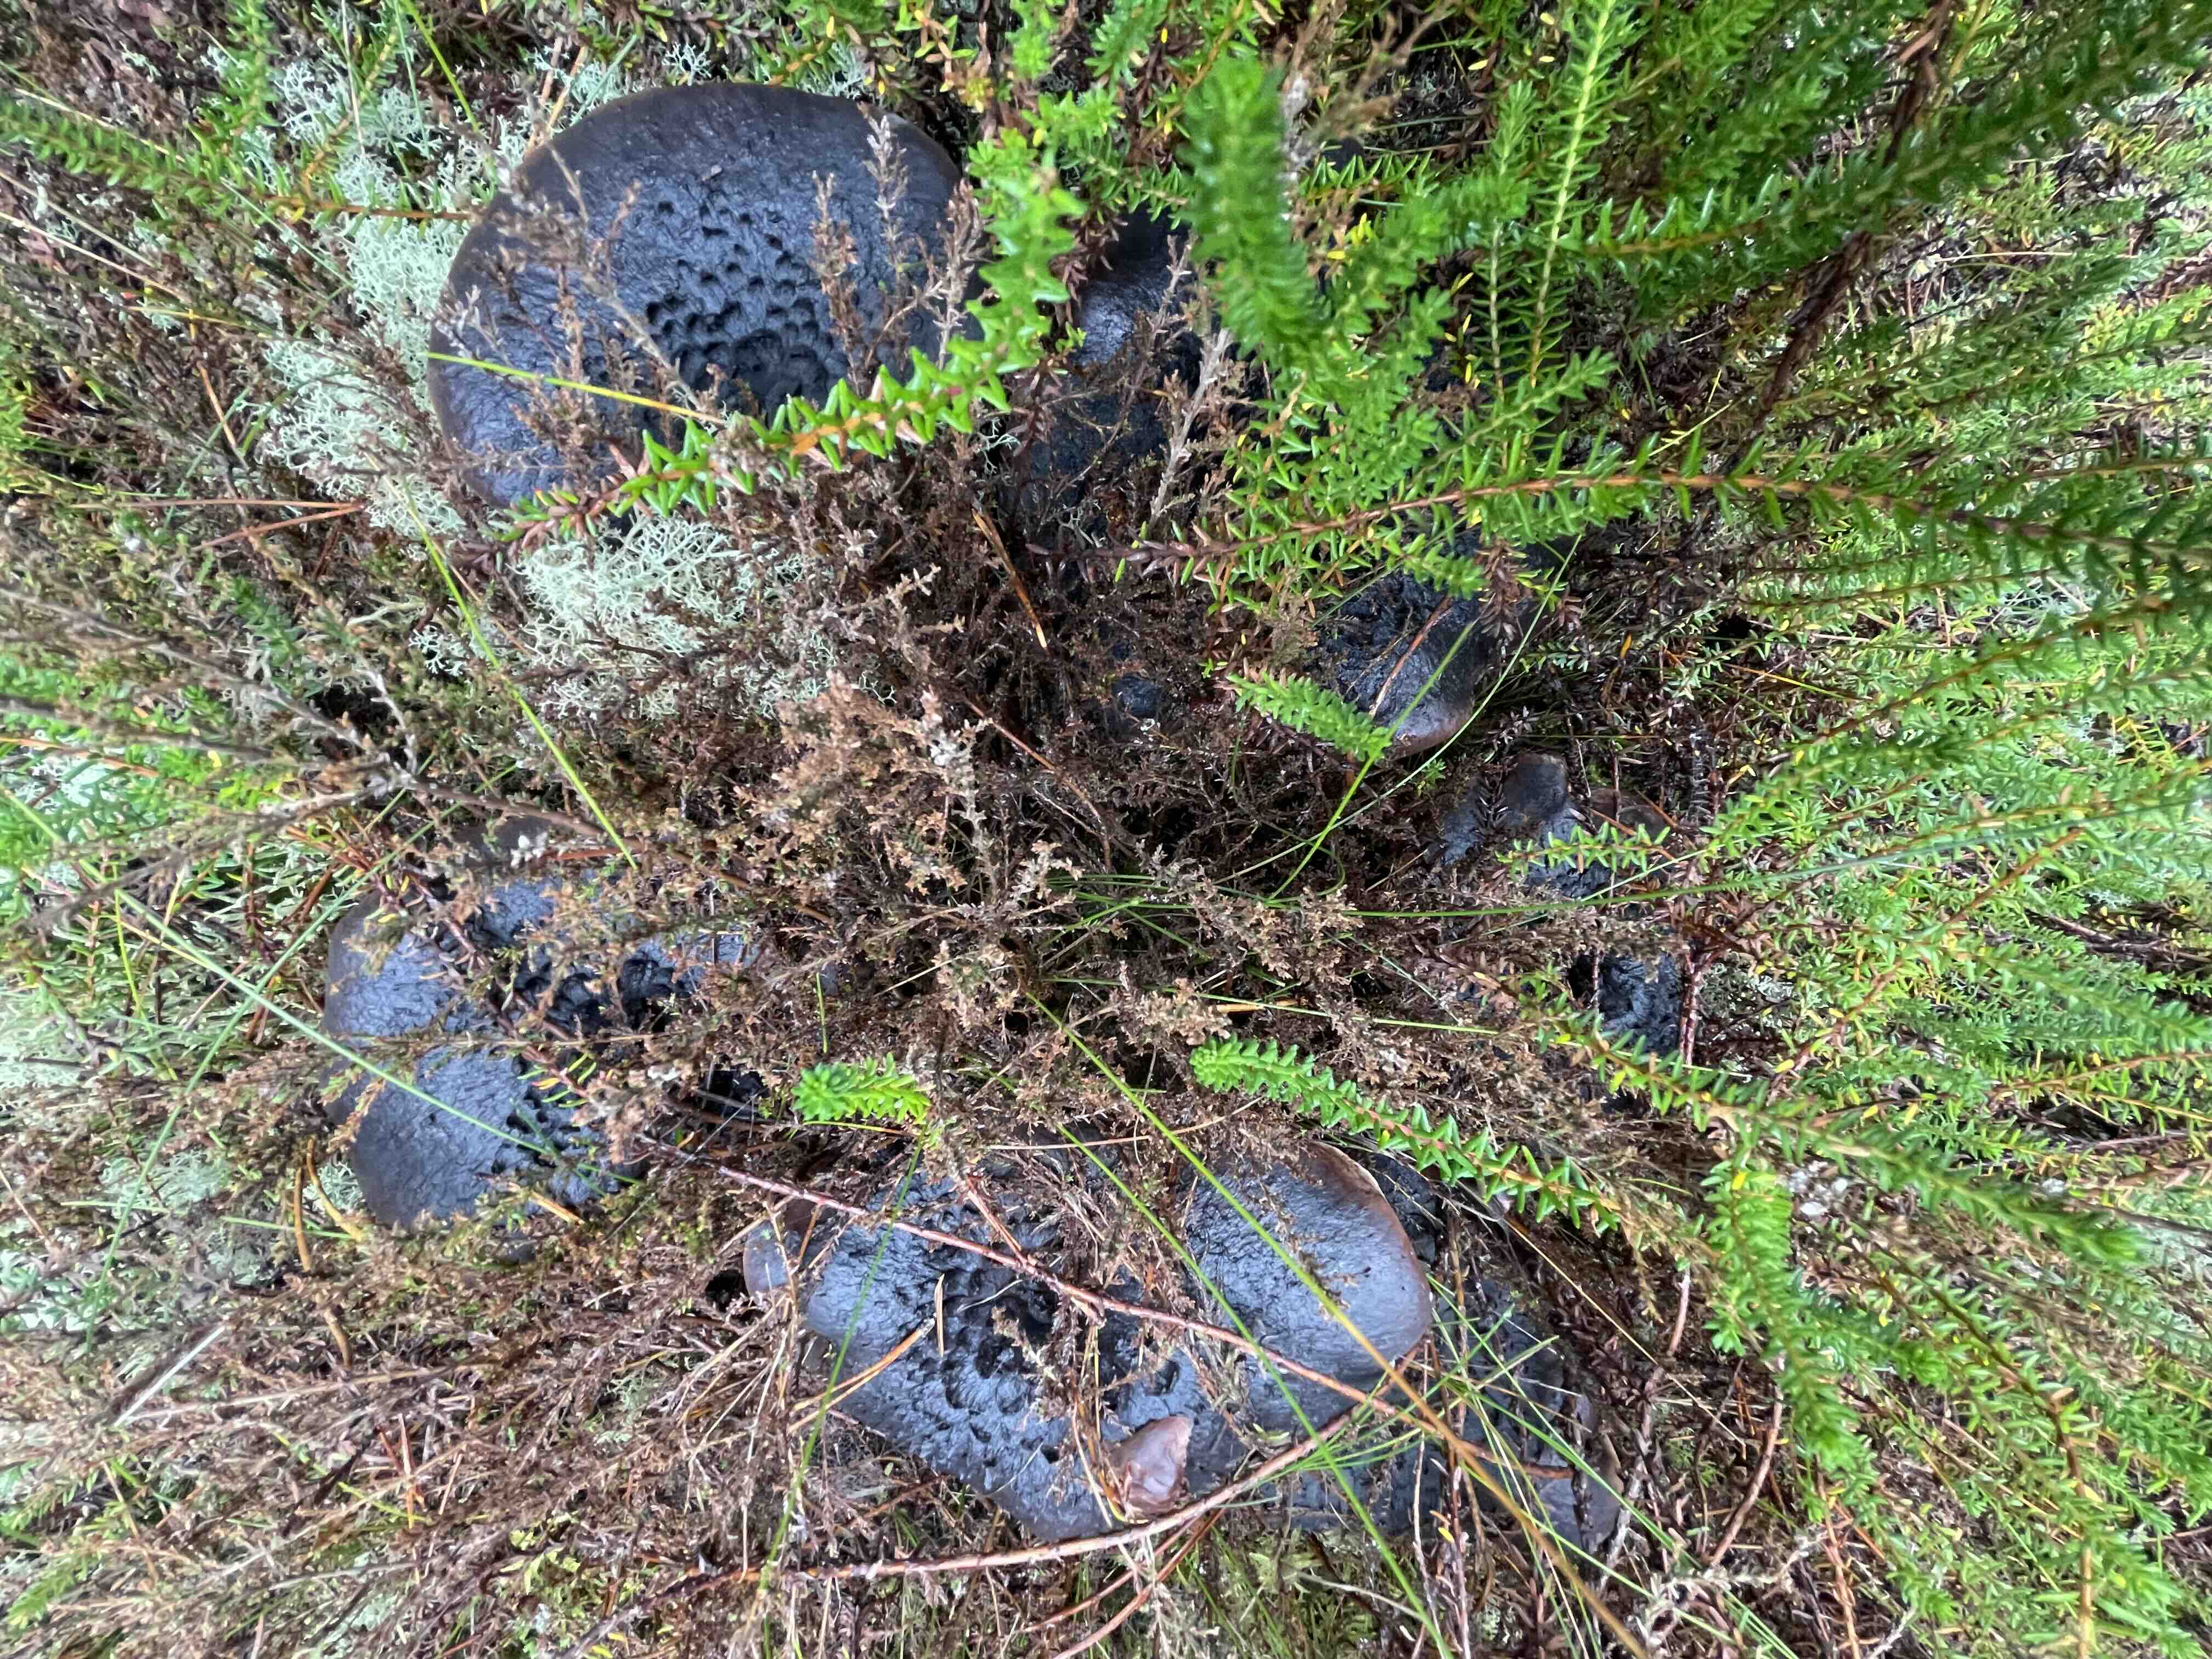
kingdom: Fungi
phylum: Basidiomycota
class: Agaricomycetes
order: Thelephorales
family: Bankeraceae
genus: Sarcodon
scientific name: Sarcodon squamosus
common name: småskællet kødpigsvamp
